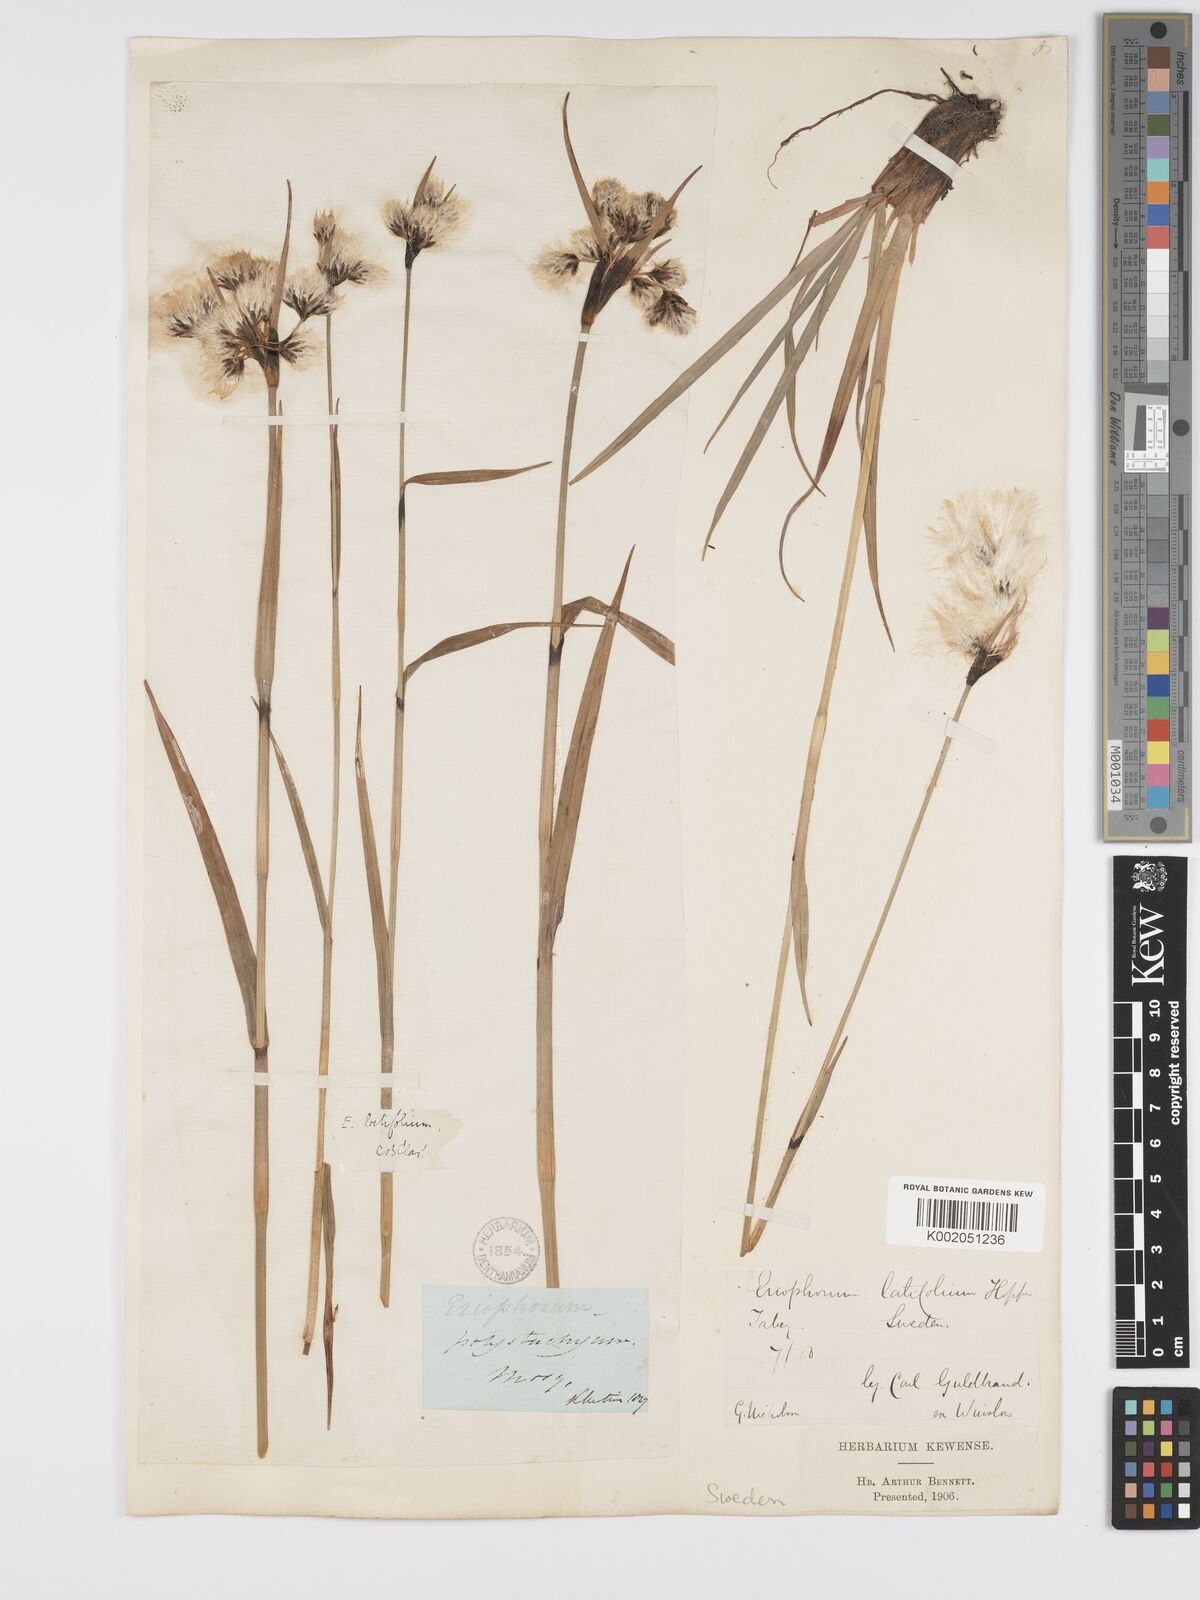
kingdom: Plantae
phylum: Tracheophyta
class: Liliopsida
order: Poales
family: Cyperaceae
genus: Eriophorum
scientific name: Eriophorum latifolium
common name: Broad-leaved cottongrass
